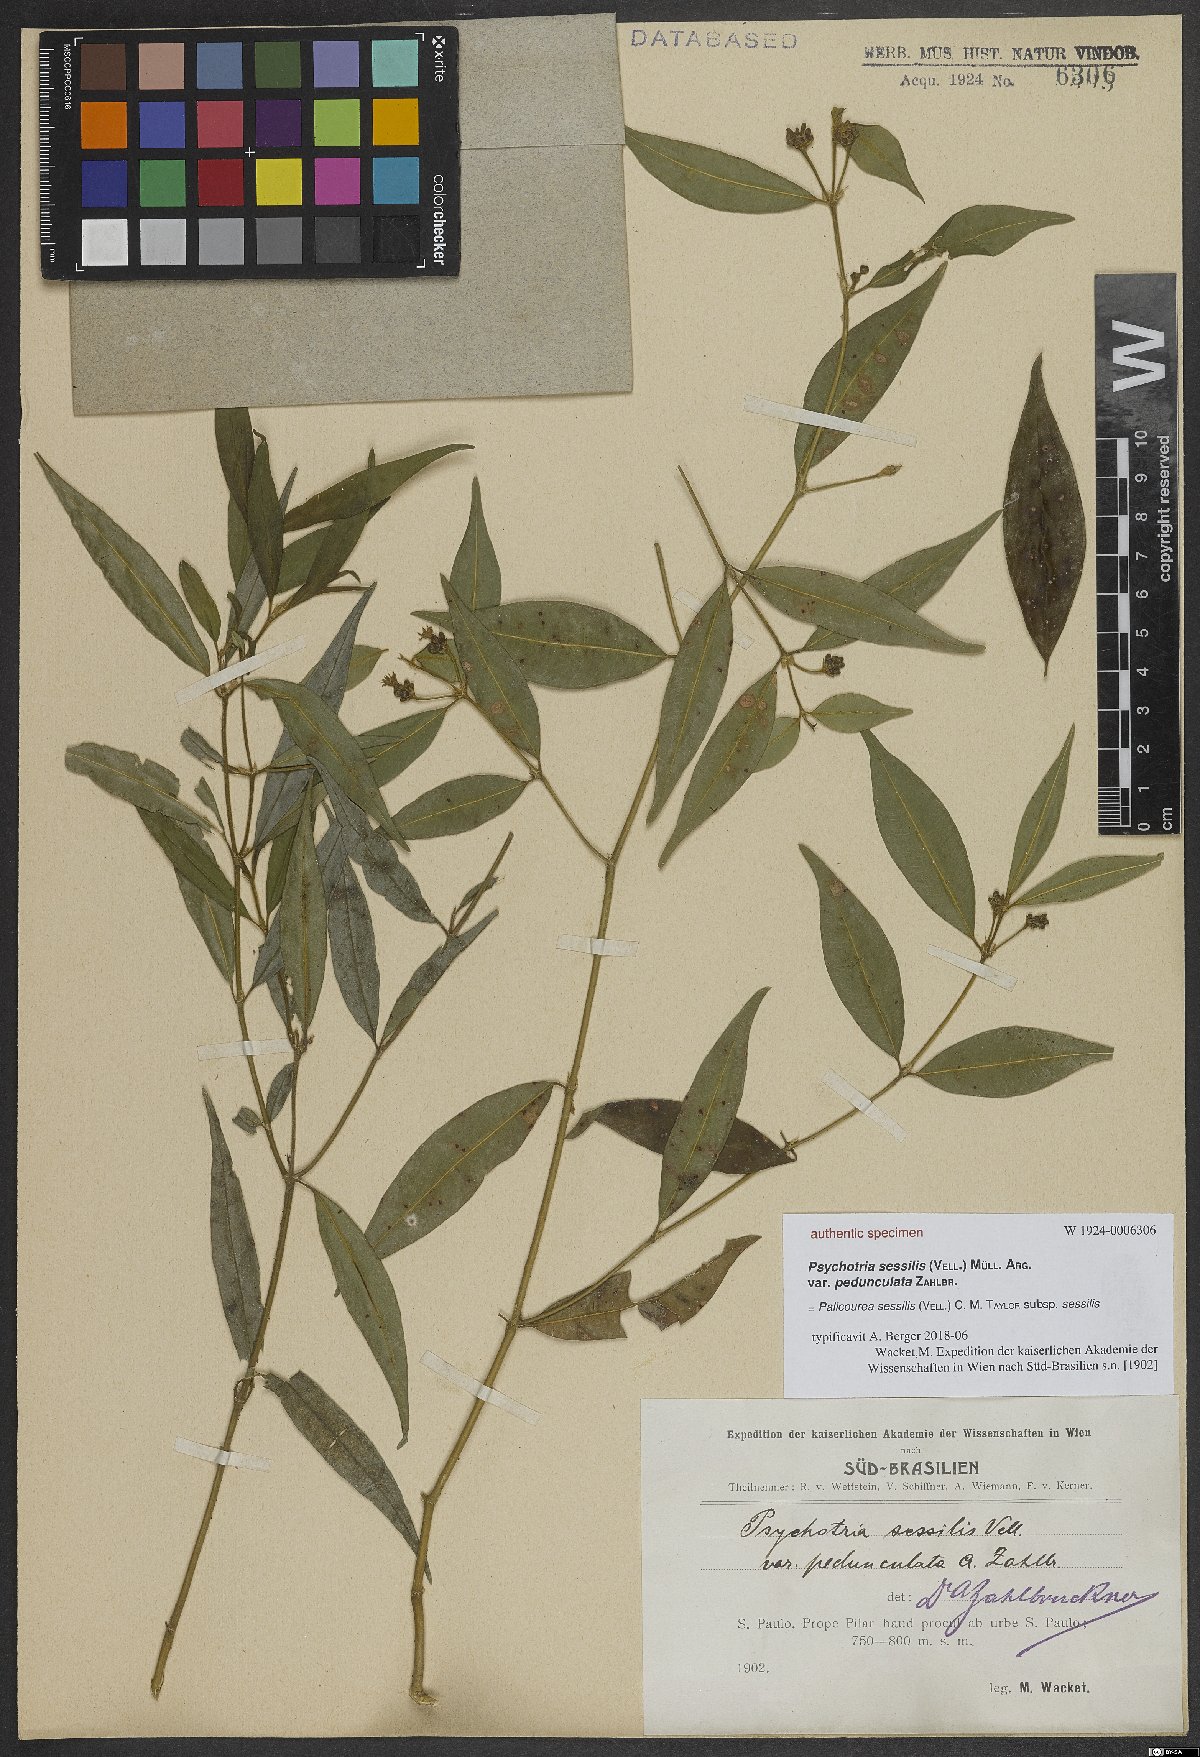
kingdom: Plantae
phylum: Tracheophyta
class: Magnoliopsida
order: Gentianales
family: Rubiaceae
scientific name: Rubiaceae
